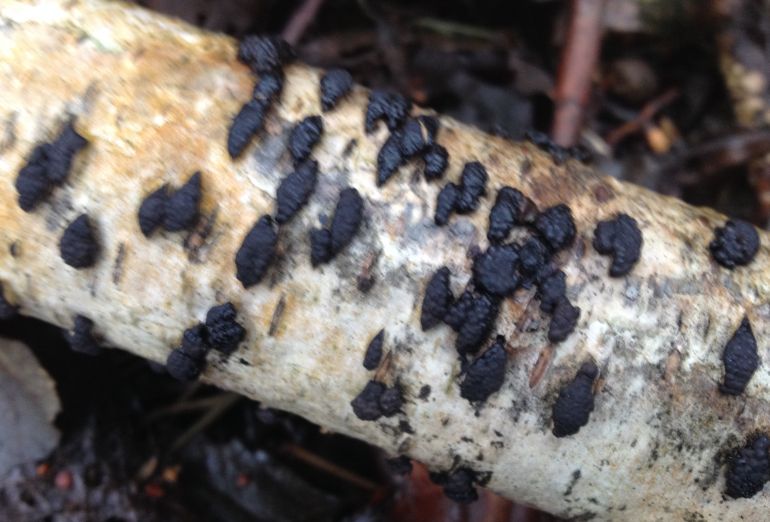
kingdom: Fungi
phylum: Ascomycota
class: Sordariomycetes
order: Xylariales
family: Hypoxylaceae
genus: Jackrogersella
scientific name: Jackrogersella multiformis
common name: foranderlig kulbær
